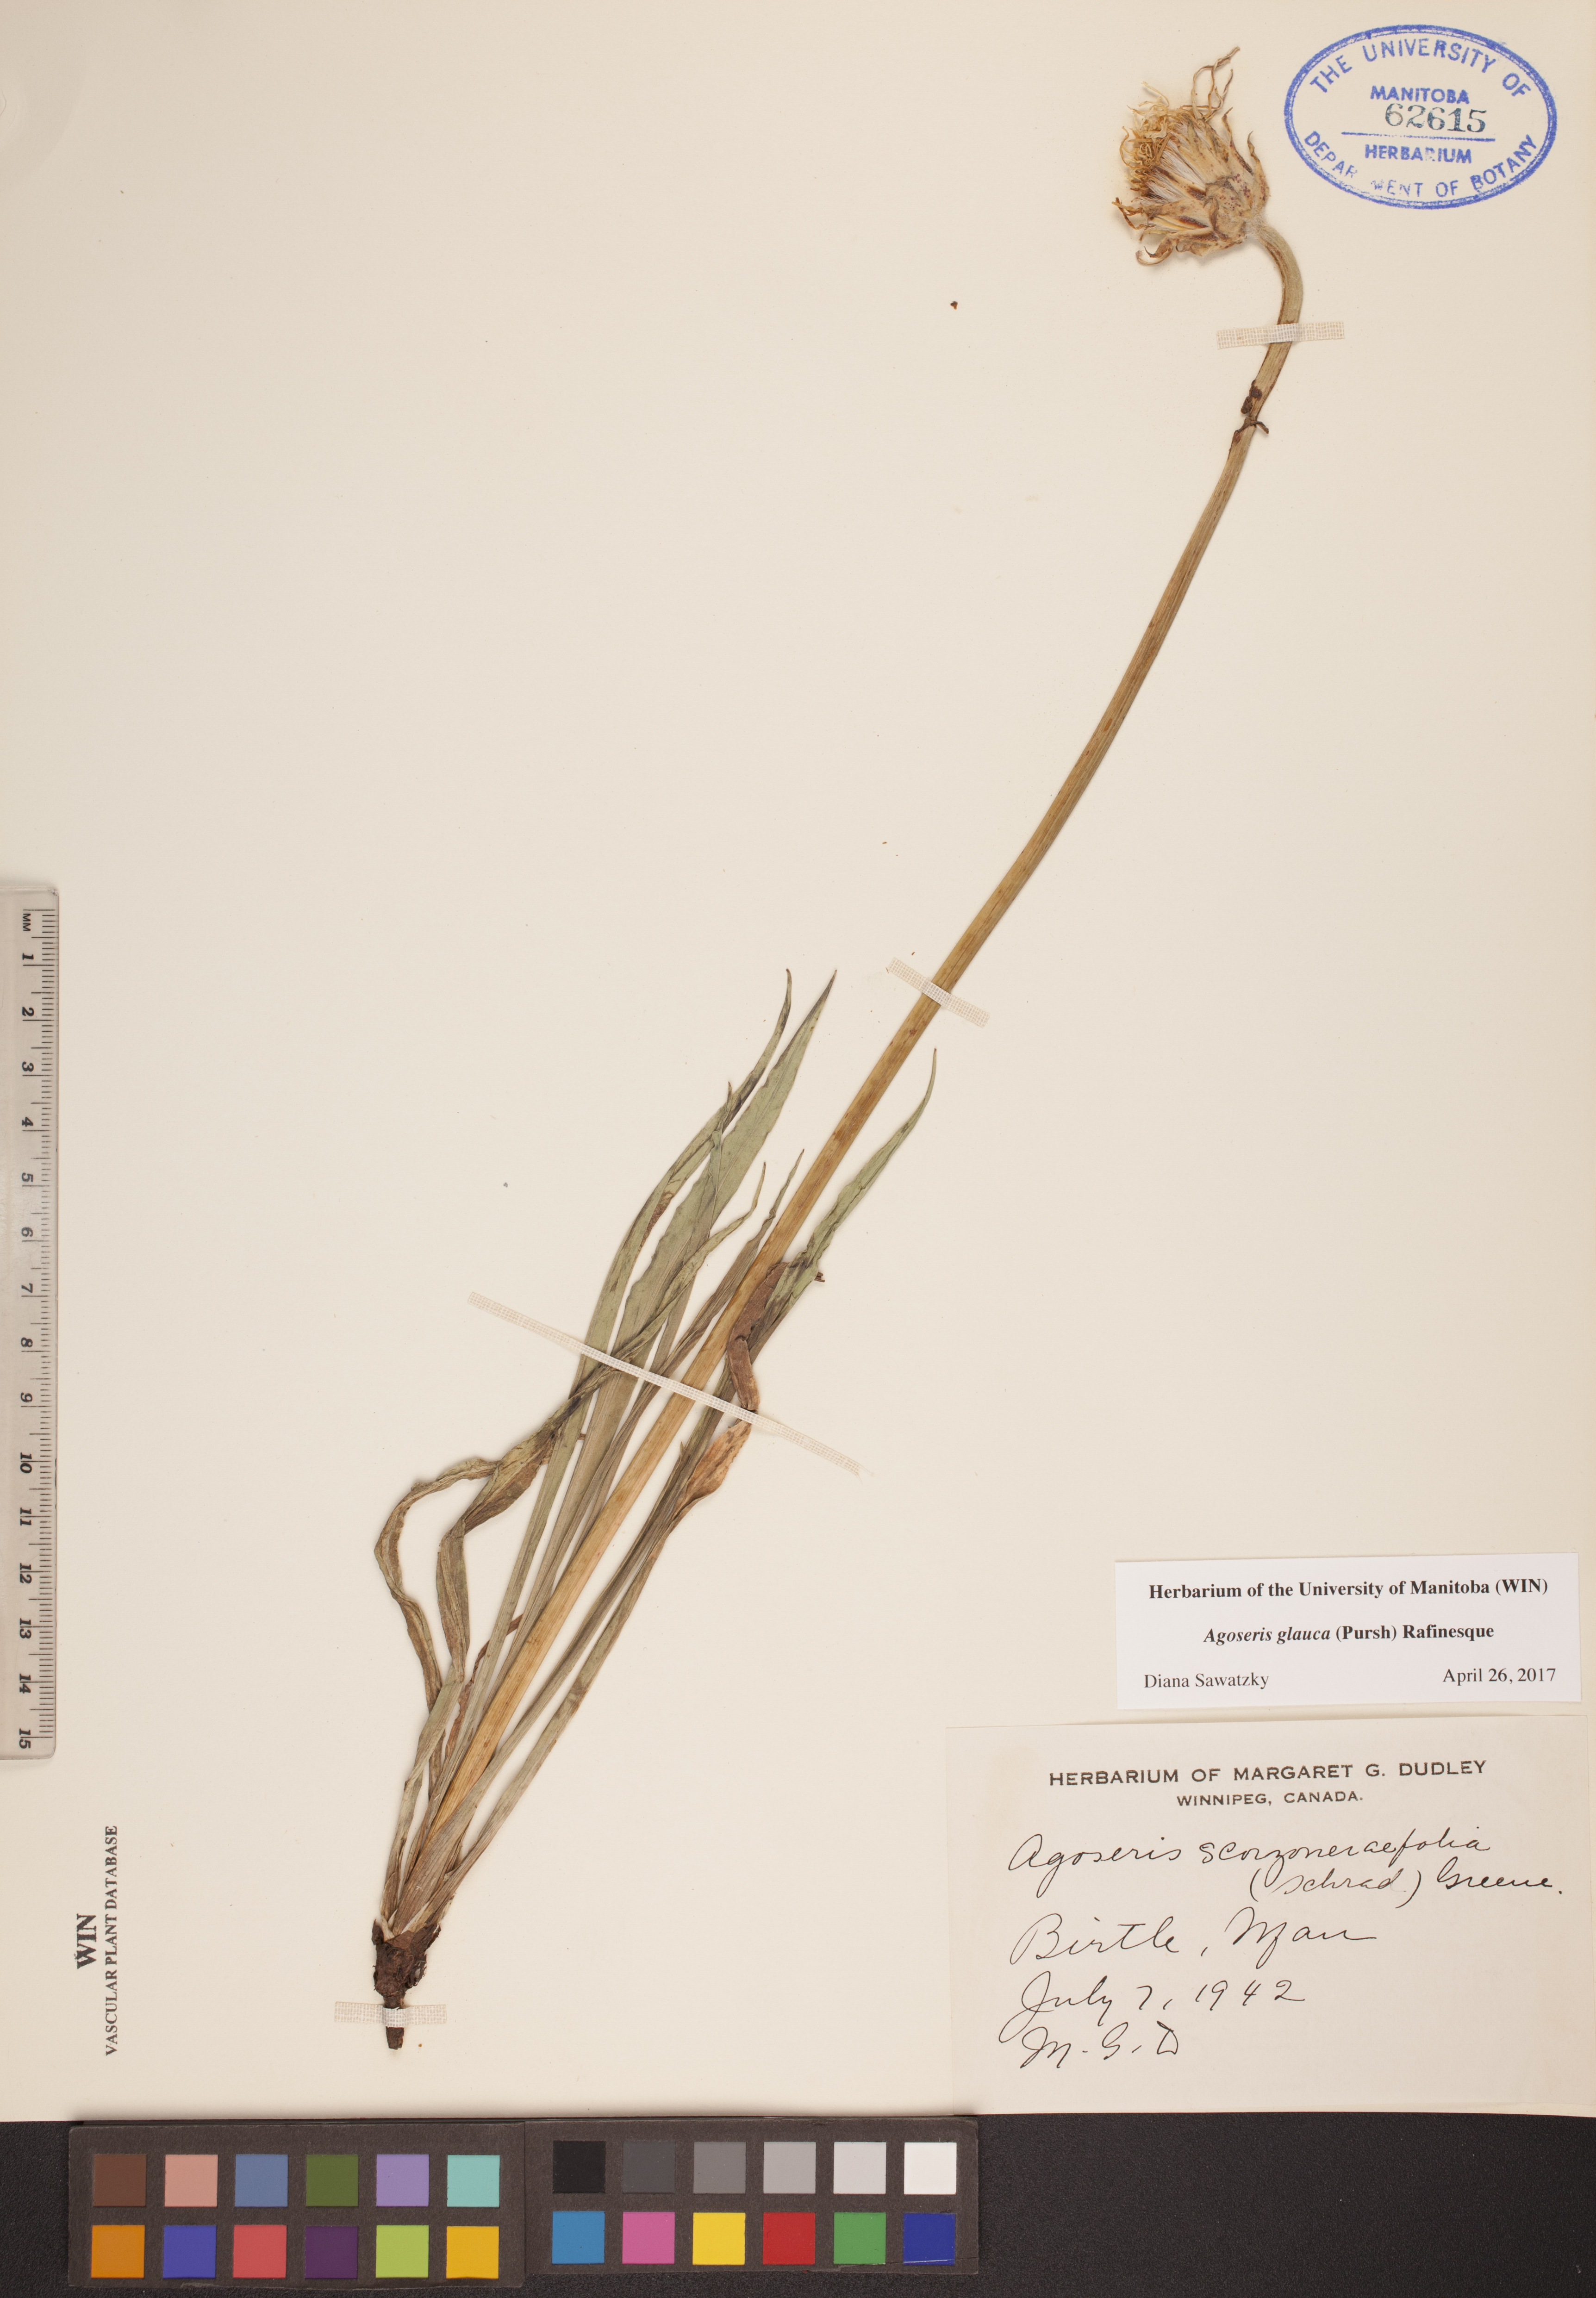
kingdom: Plantae
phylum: Tracheophyta
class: Magnoliopsida
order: Asterales
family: Asteraceae
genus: Agoseris
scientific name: Agoseris glauca
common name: Prairie agoseris
